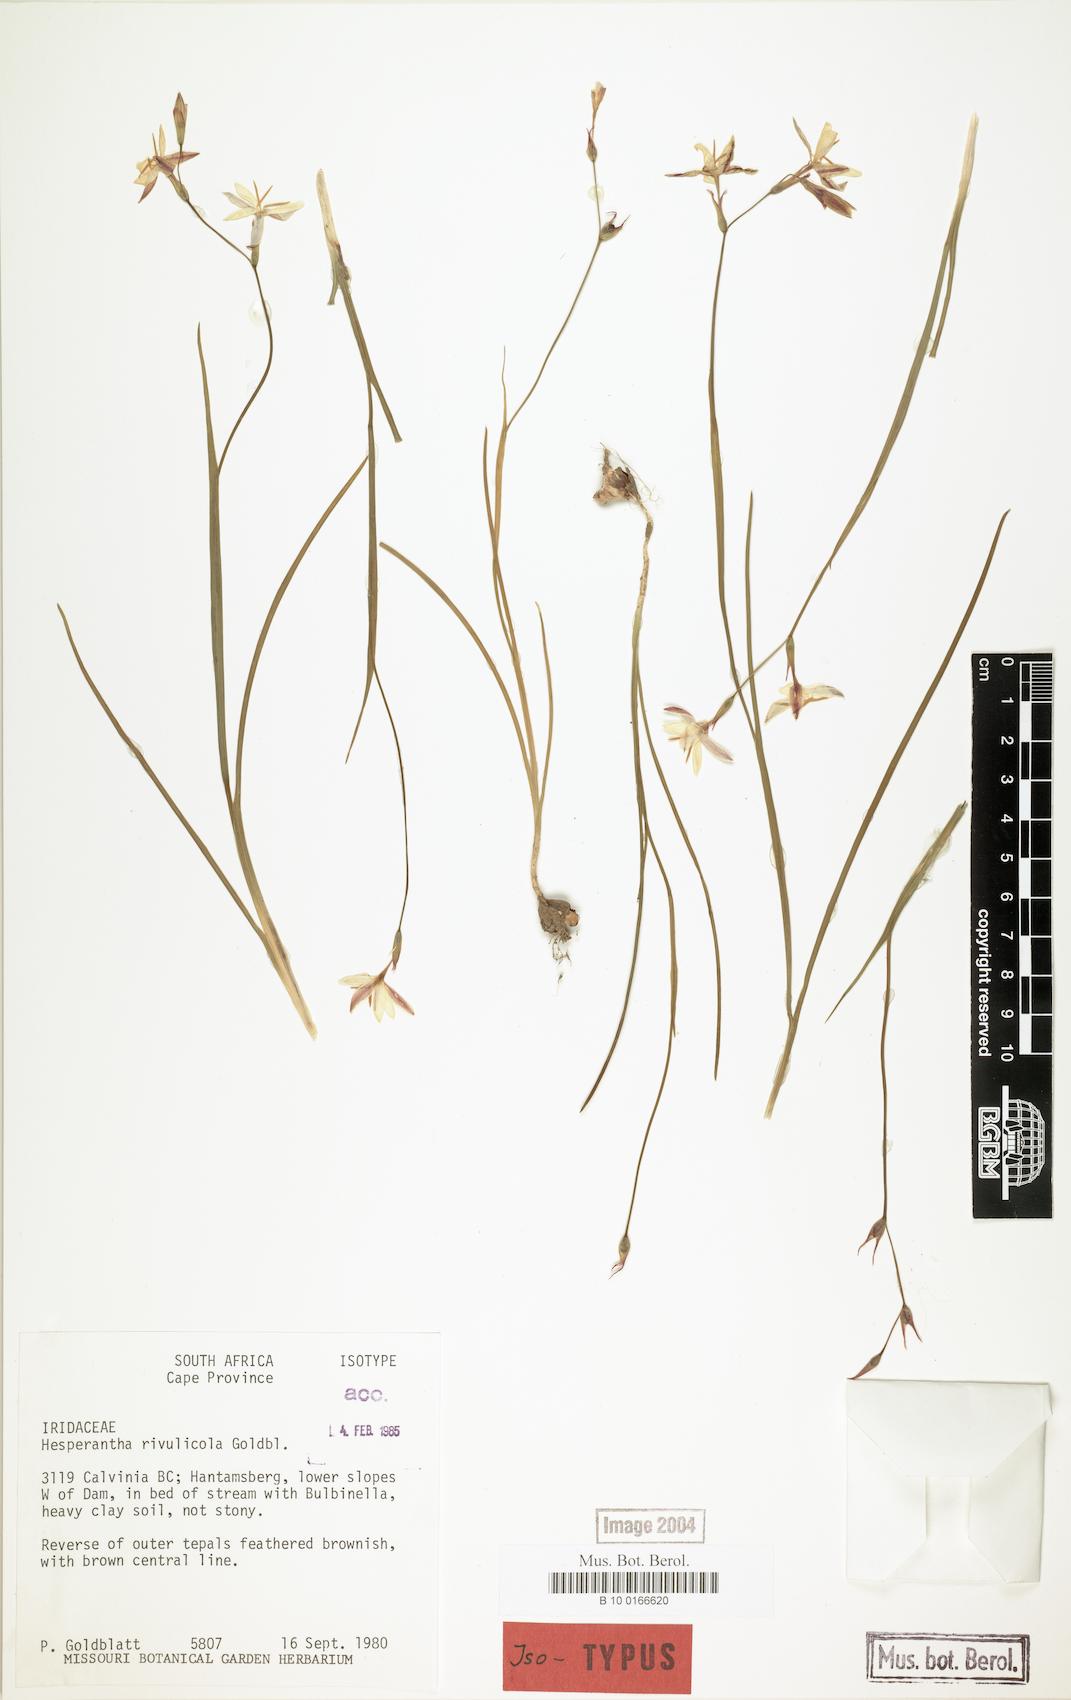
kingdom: Plantae
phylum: Tracheophyta
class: Liliopsida
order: Asparagales
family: Iridaceae
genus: Hesperantha
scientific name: Hesperantha rivulicola
